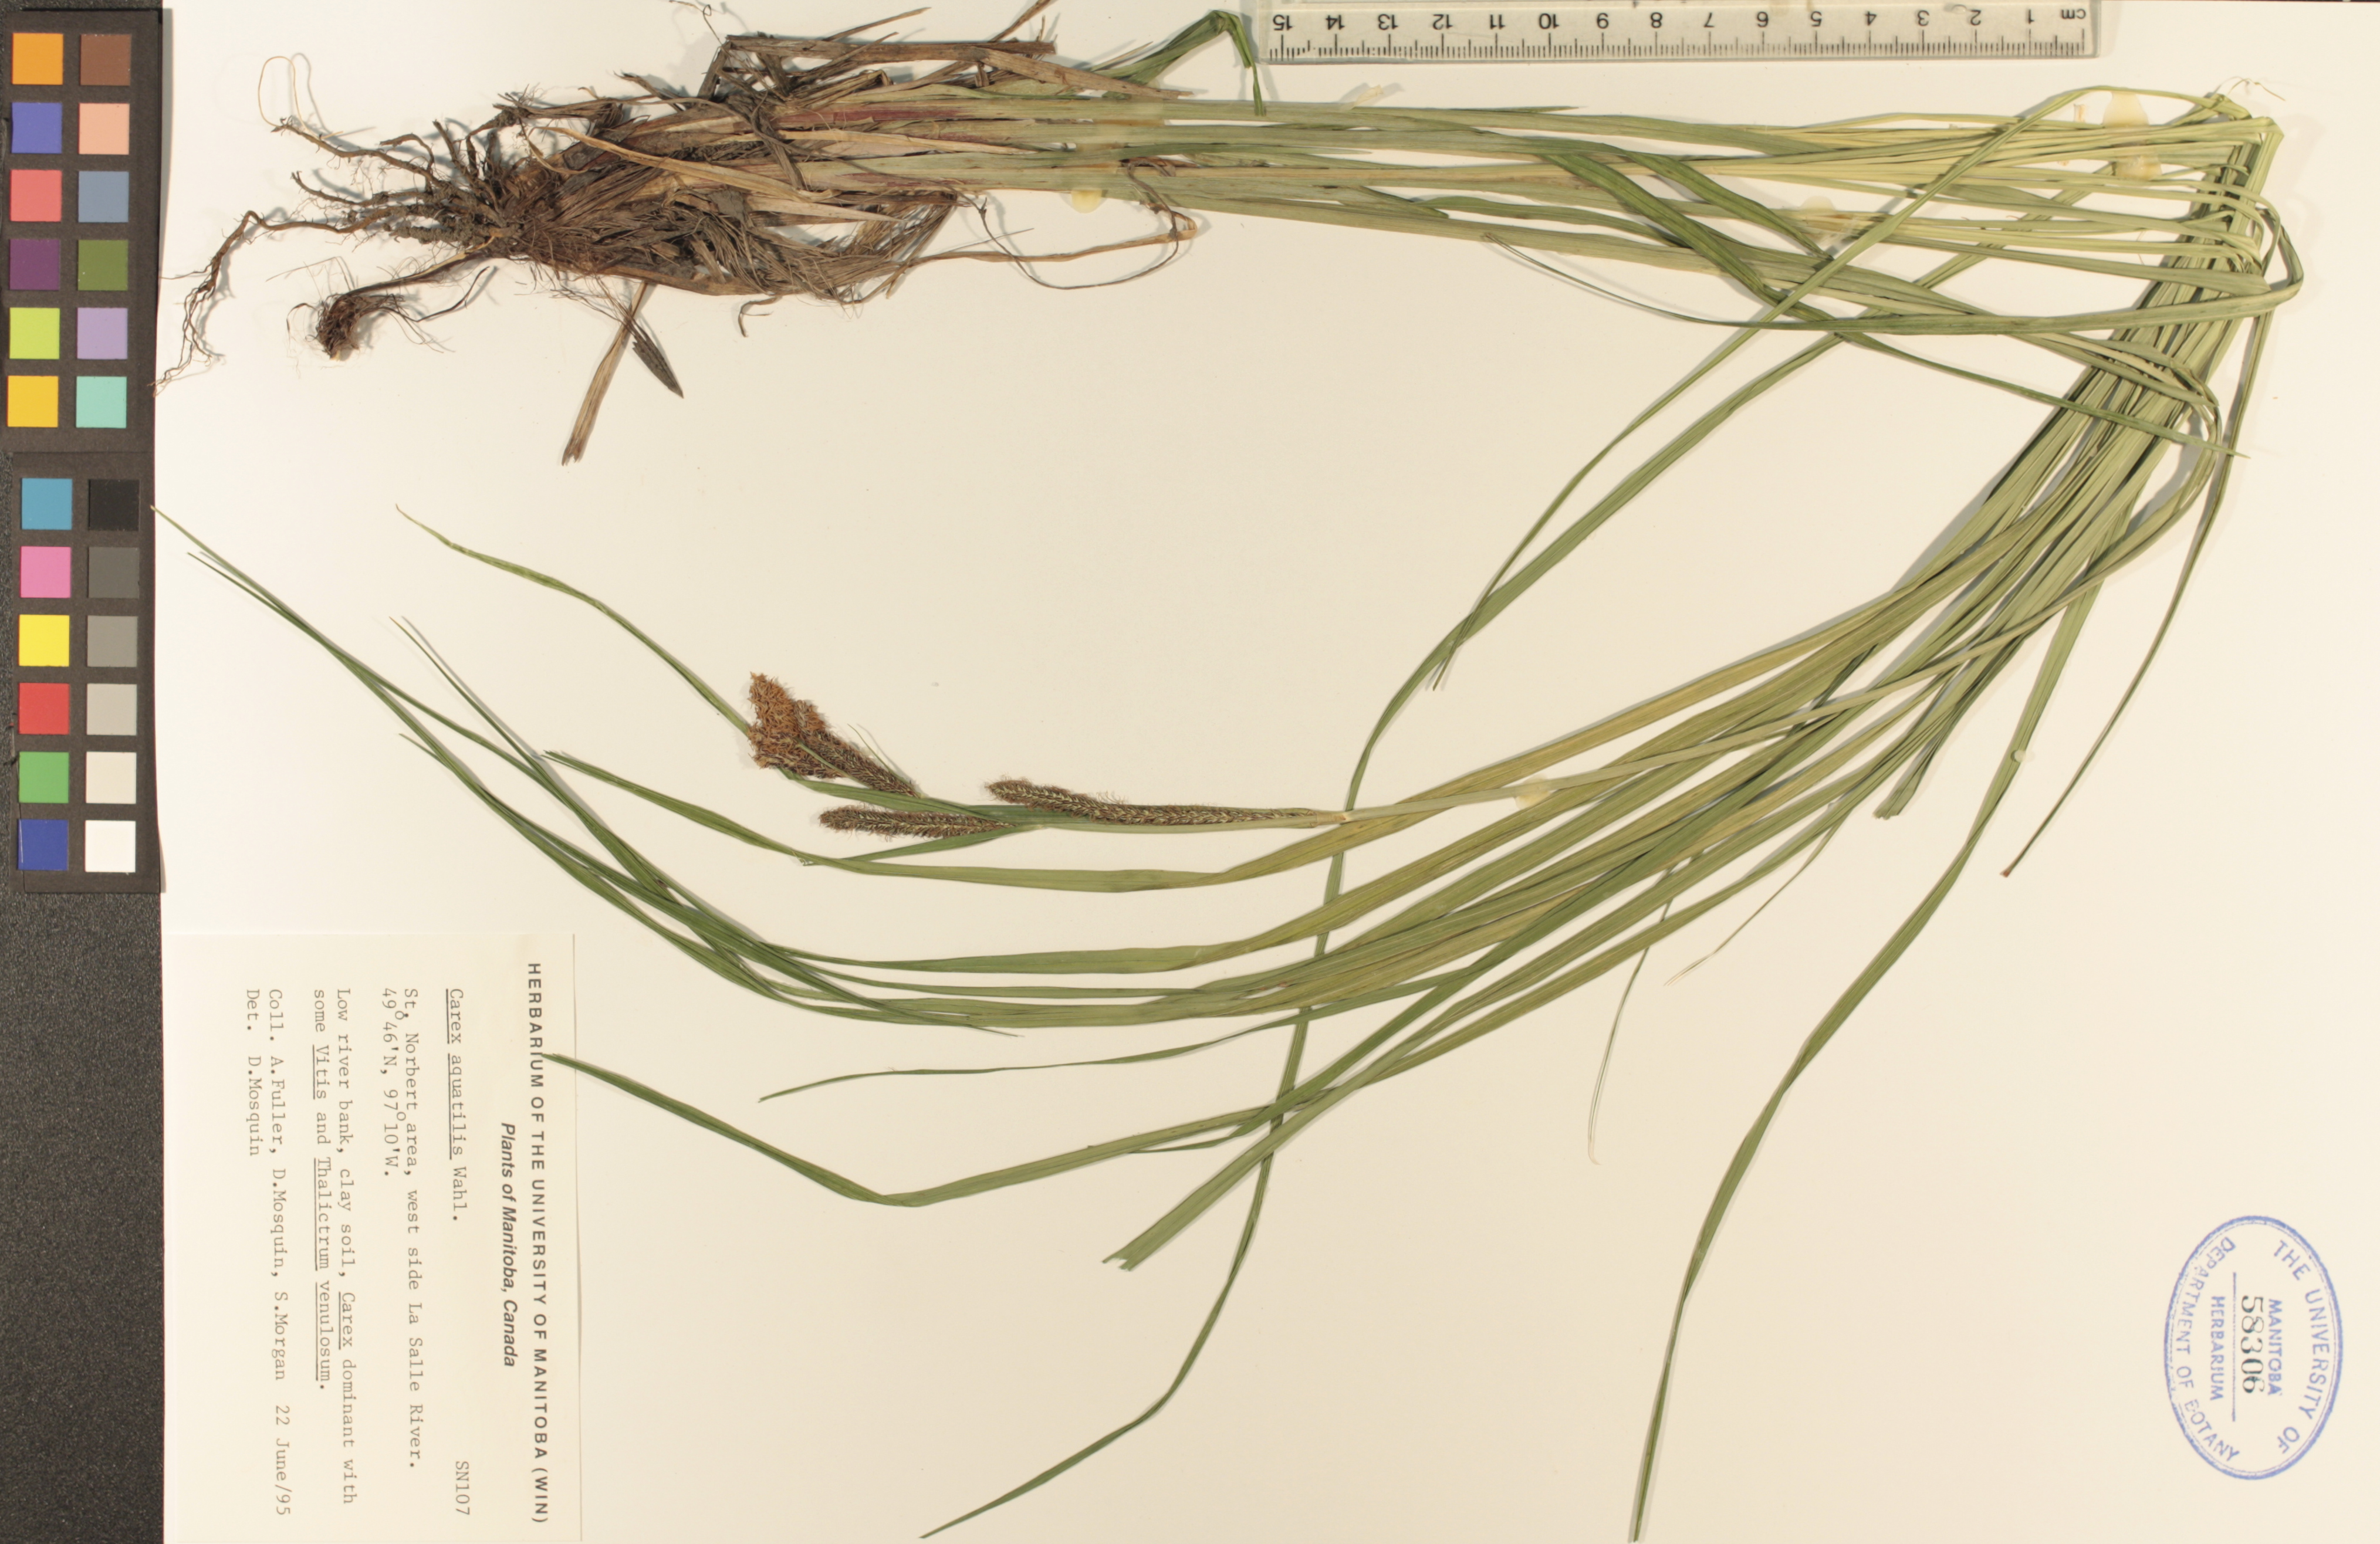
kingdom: Plantae
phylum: Tracheophyta
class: Liliopsida
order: Poales
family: Cyperaceae
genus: Carex
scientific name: Carex aquatilis
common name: Water sedge
